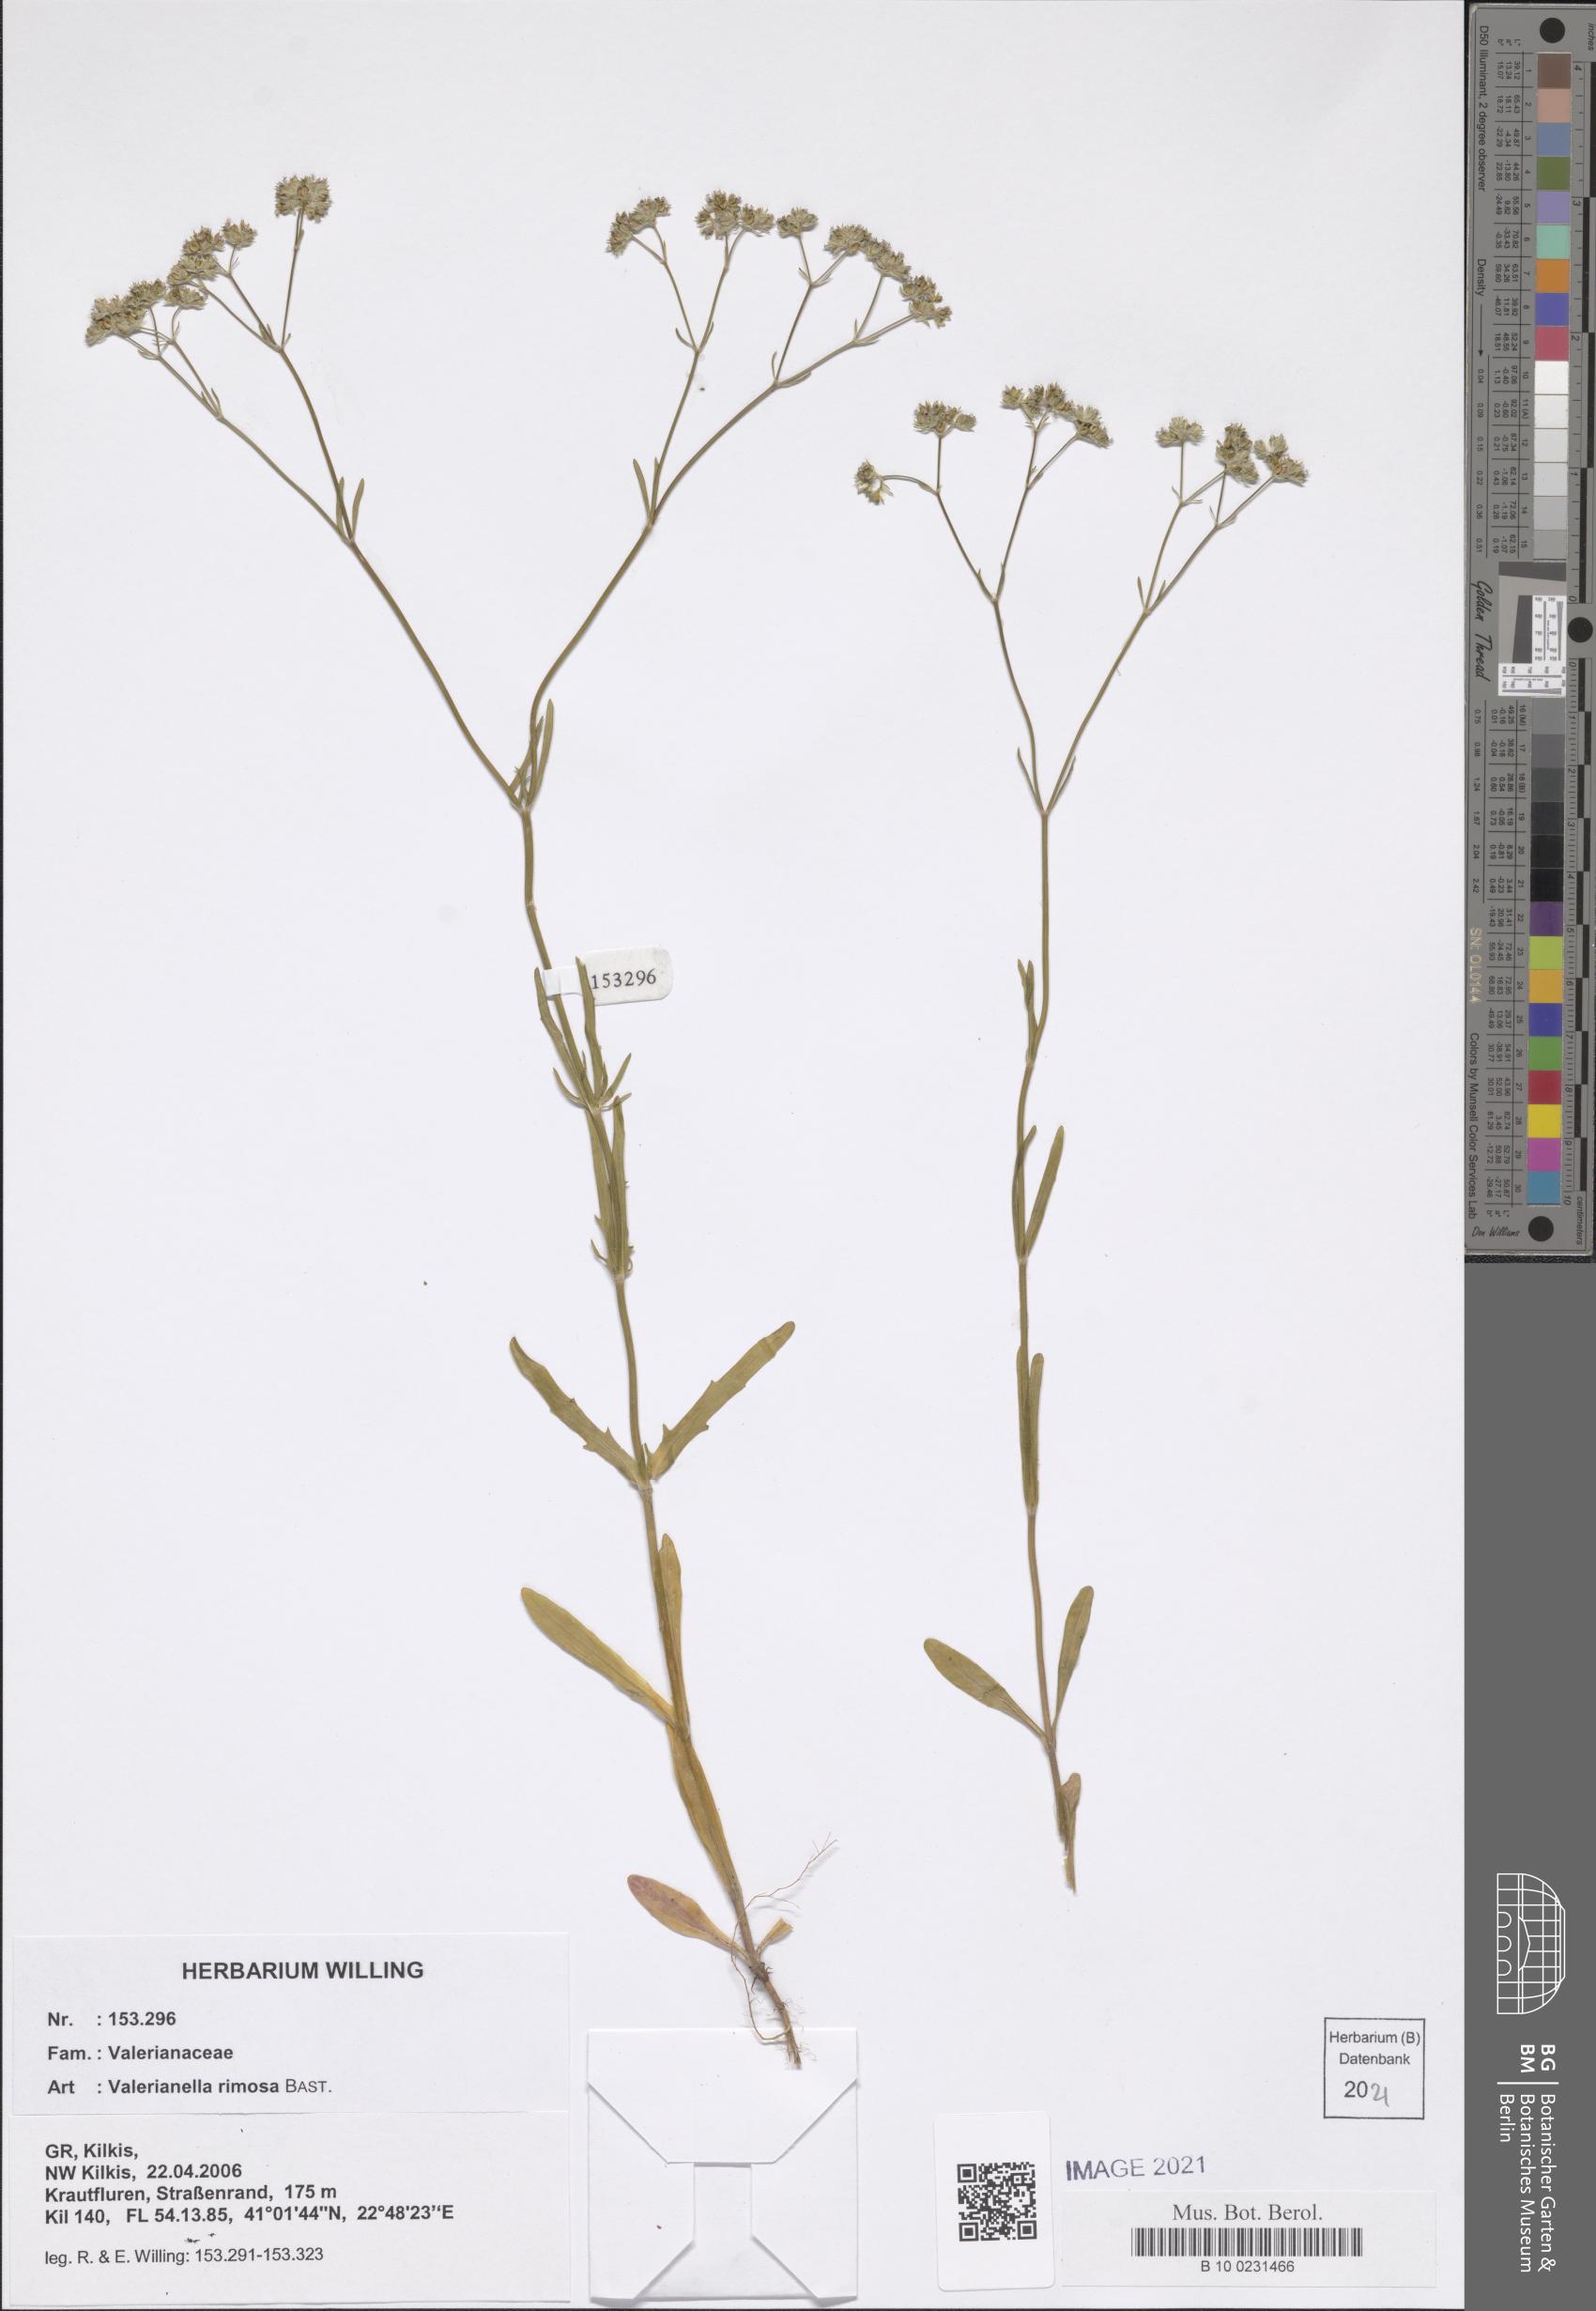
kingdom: Plantae
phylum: Tracheophyta
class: Magnoliopsida
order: Dipsacales
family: Caprifoliaceae
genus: Valerianella
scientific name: Valerianella rimosa
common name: Broad-fruited cornsalad
